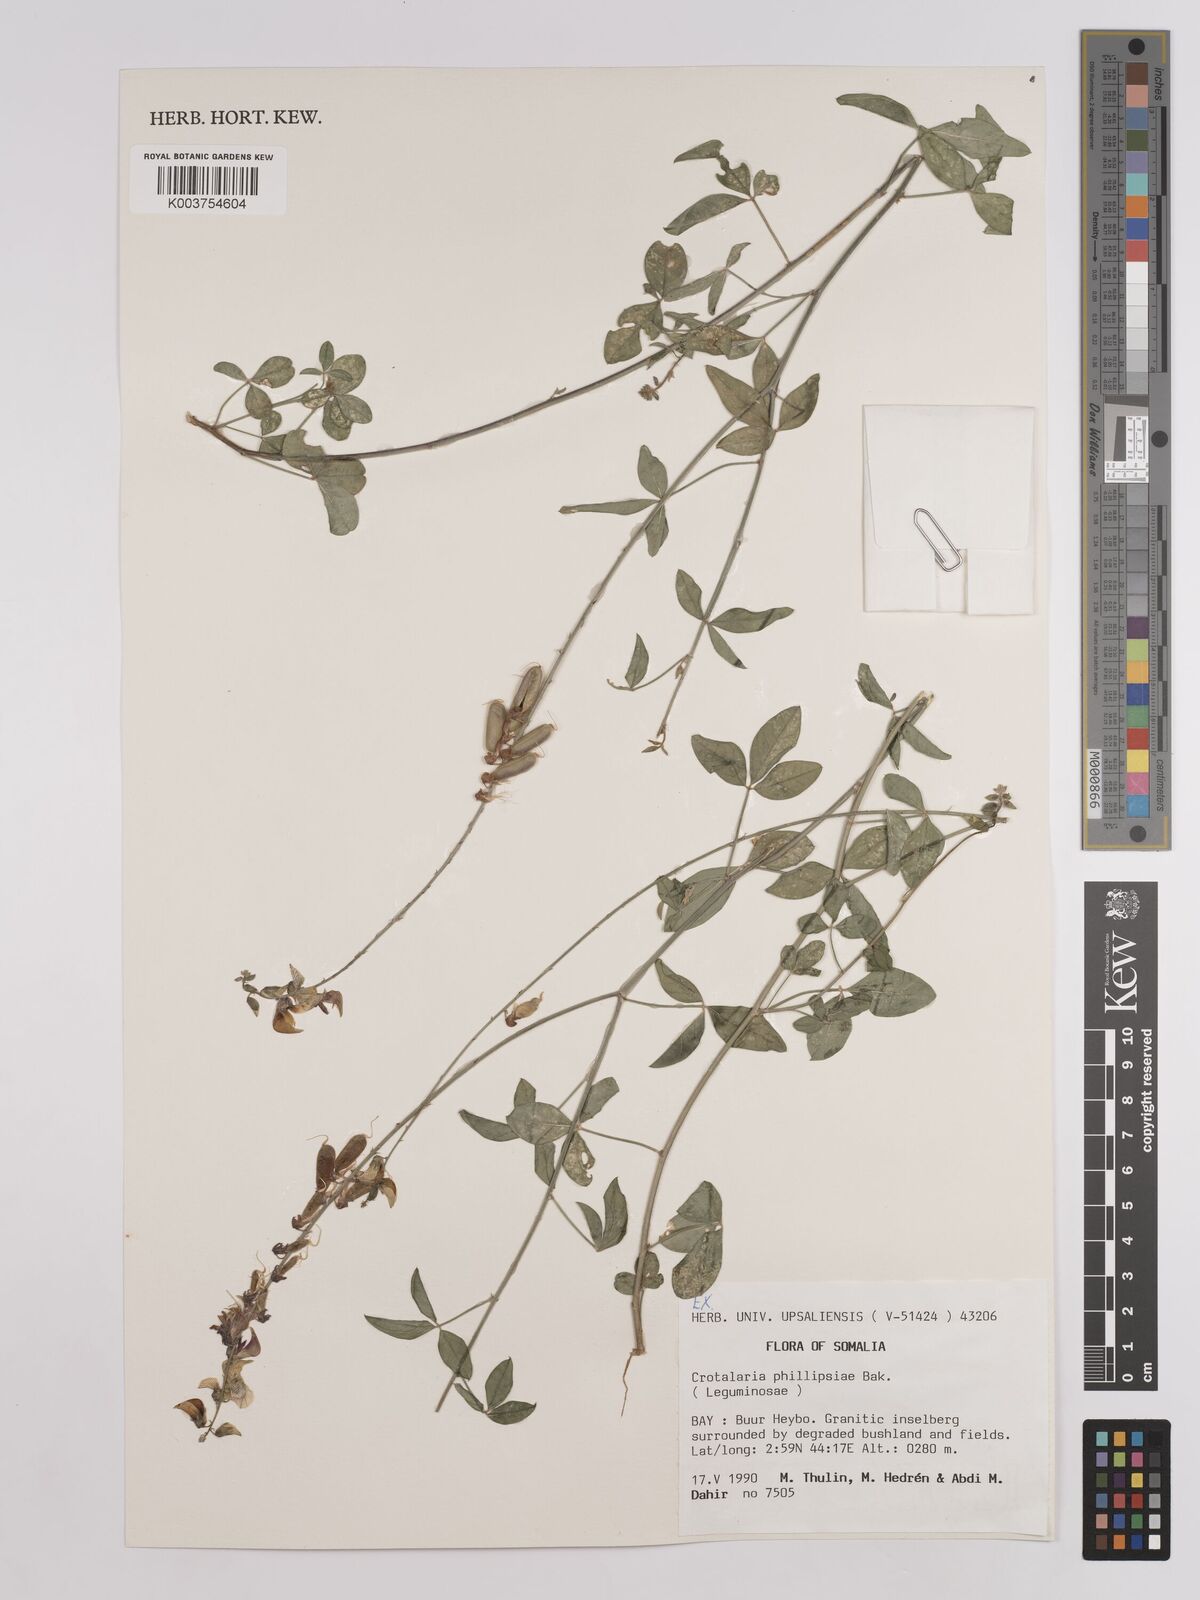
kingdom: Plantae
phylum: Tracheophyta
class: Magnoliopsida
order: Fabales
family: Fabaceae
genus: Crotalaria
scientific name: Crotalaria phillipsiae
